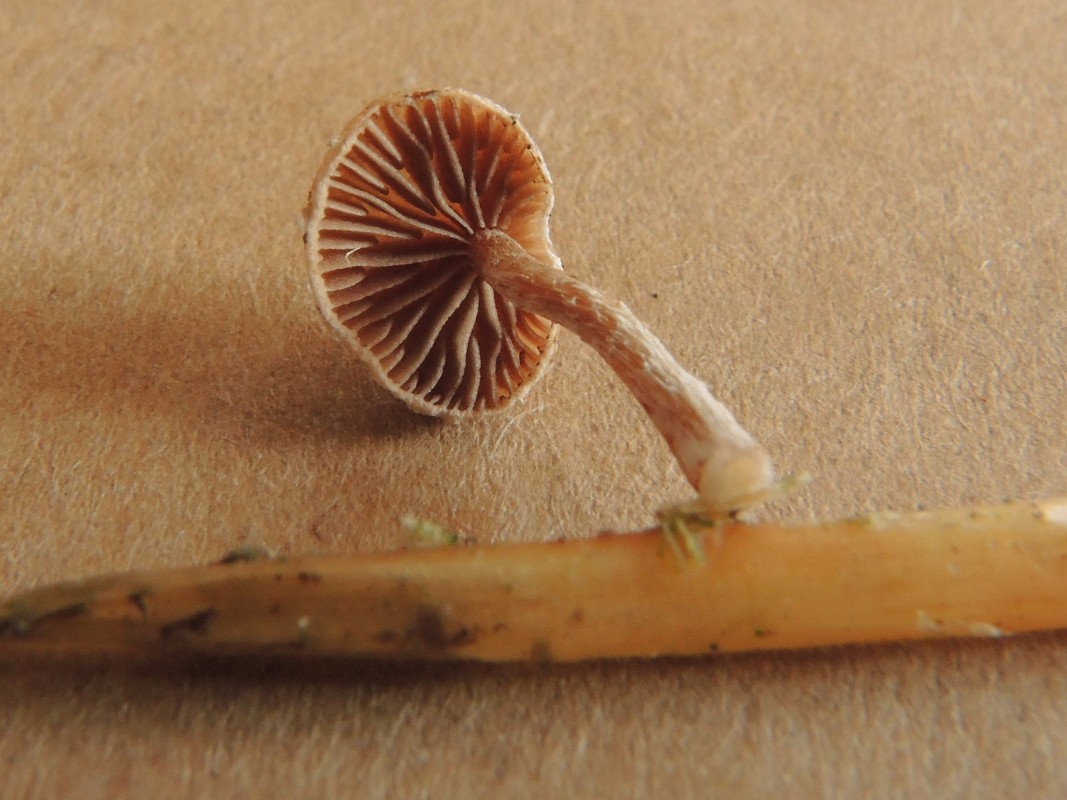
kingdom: Fungi
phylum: Basidiomycota
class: Agaricomycetes
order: Agaricales
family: Strophariaceae
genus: Deconica
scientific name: Deconica
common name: stråhat
